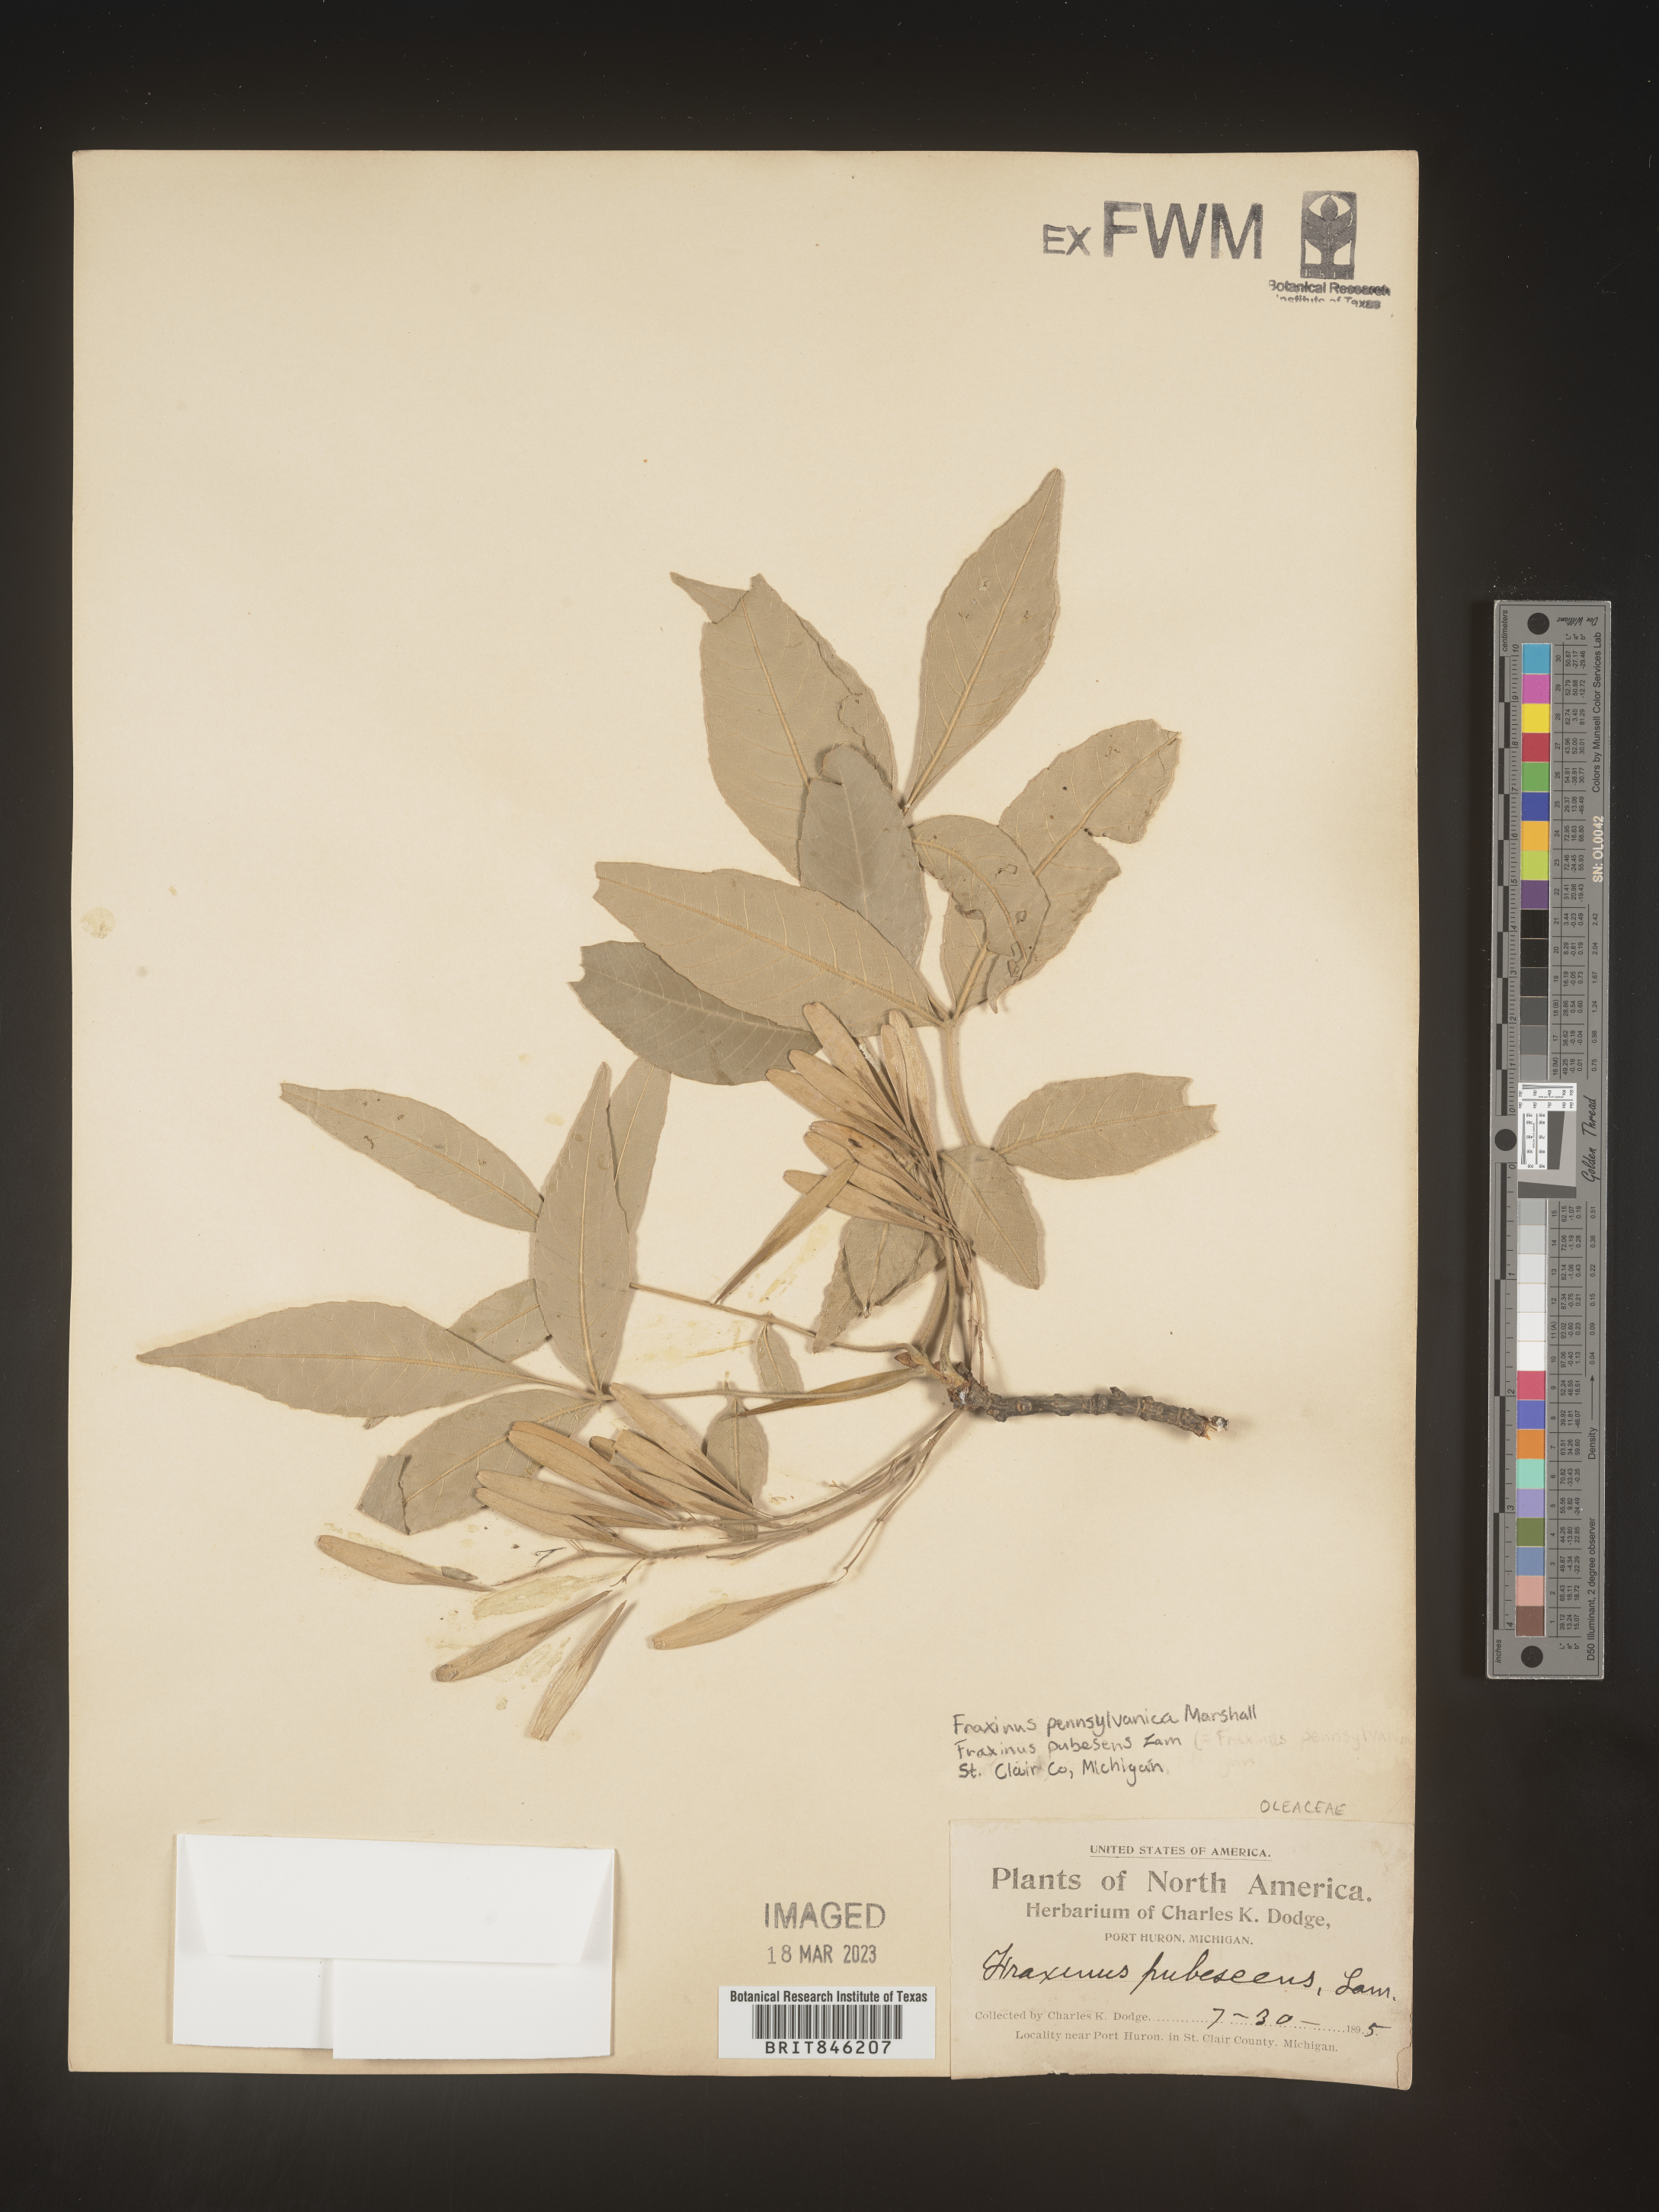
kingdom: Plantae
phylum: Tracheophyta
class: Magnoliopsida
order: Lamiales
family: Oleaceae
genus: Fraxinus
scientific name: Fraxinus pennsylvanica
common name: Green ash
